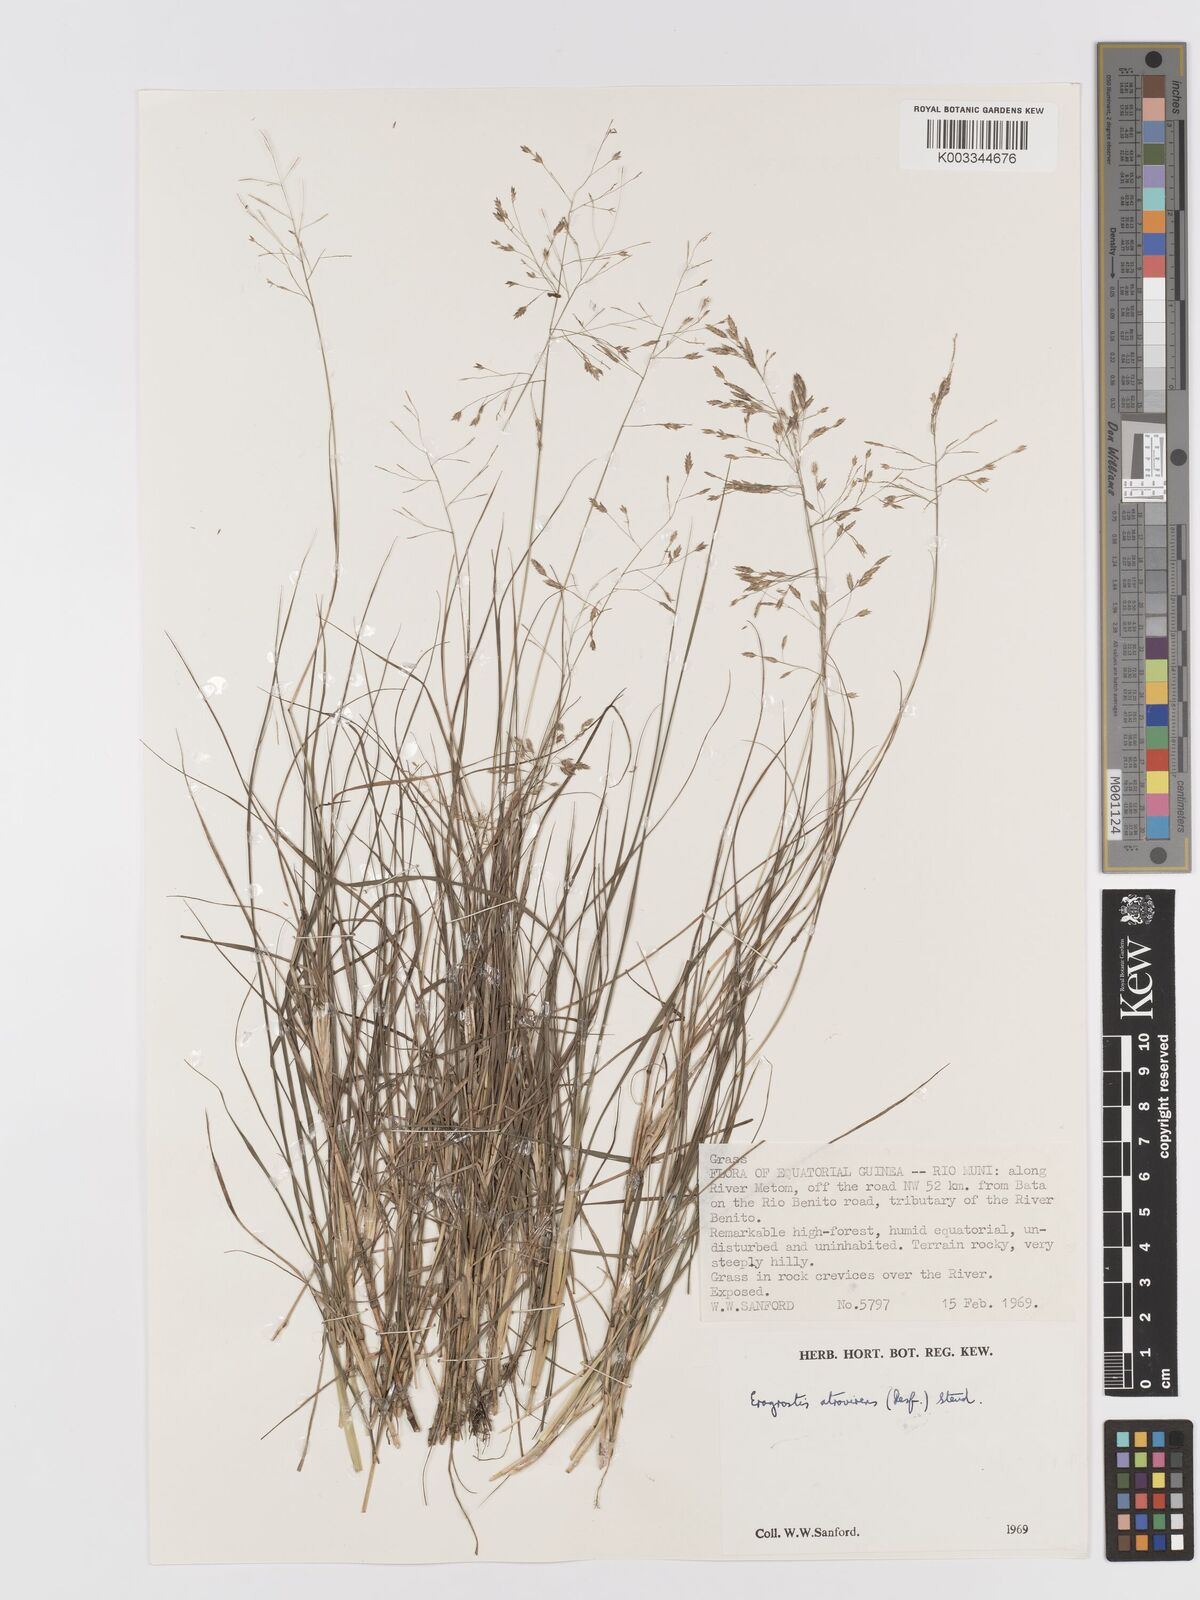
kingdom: Plantae
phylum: Tracheophyta
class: Liliopsida
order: Poales
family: Poaceae
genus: Eragrostis
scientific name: Eragrostis atrovirens
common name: Thalia lovegrass
